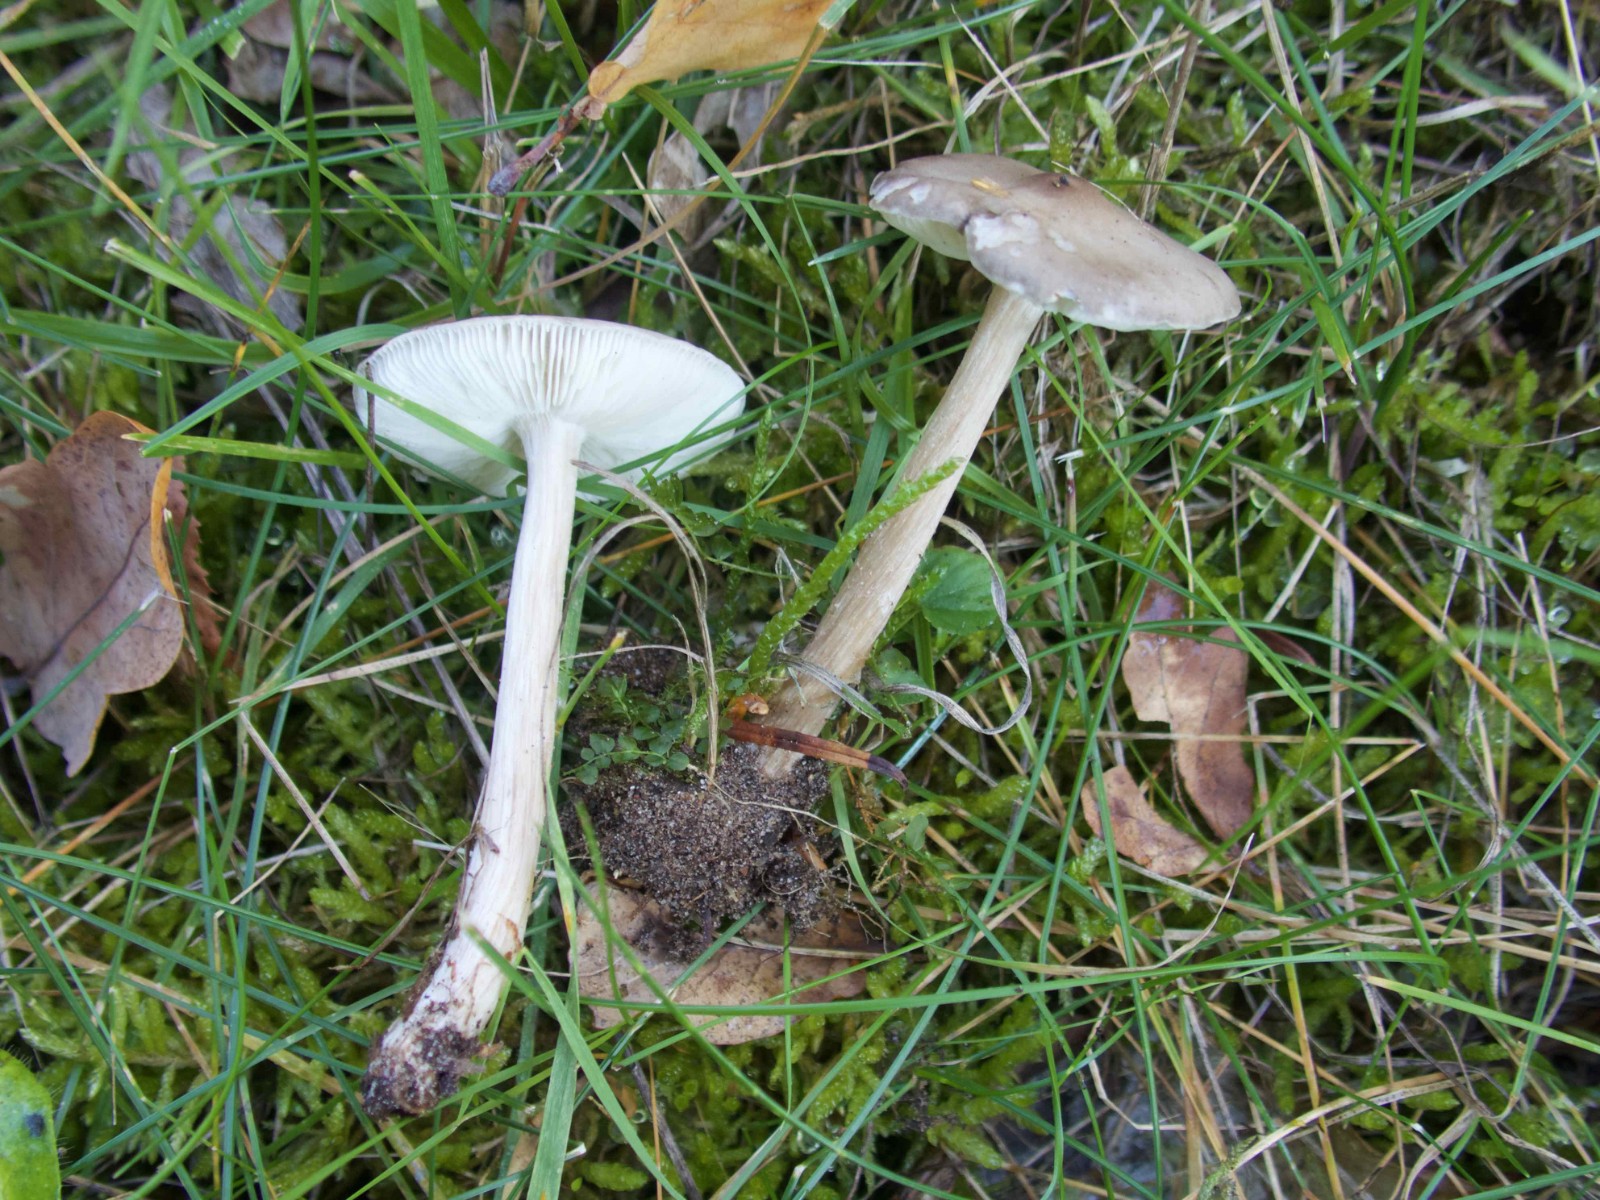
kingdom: Fungi
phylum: Basidiomycota
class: Agaricomycetes
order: Agaricales
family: Tricholomataceae
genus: Melanoleuca
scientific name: Melanoleuca
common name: munkehat
